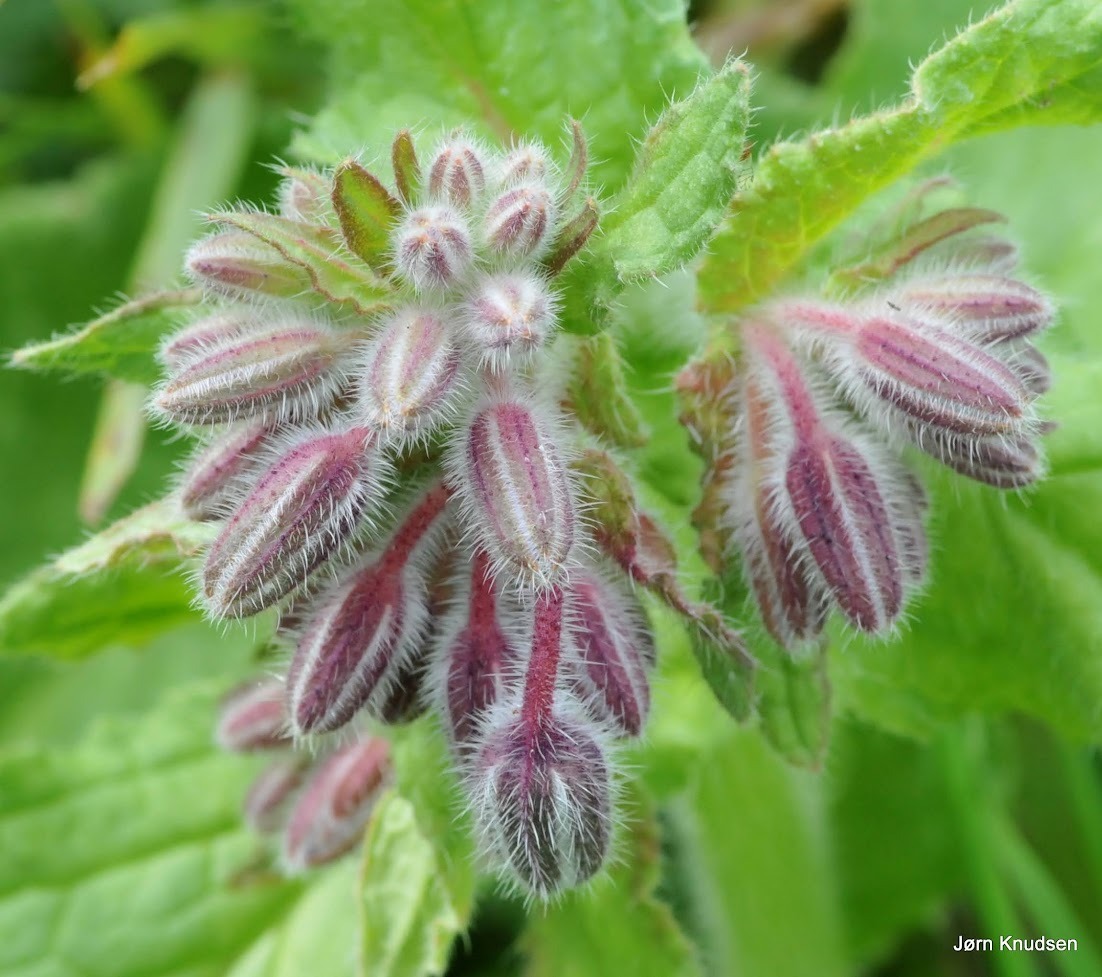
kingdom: Plantae
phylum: Tracheophyta
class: Magnoliopsida
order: Boraginales
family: Boraginaceae
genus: Borago
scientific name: Borago officinalis
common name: Hjulkrone
